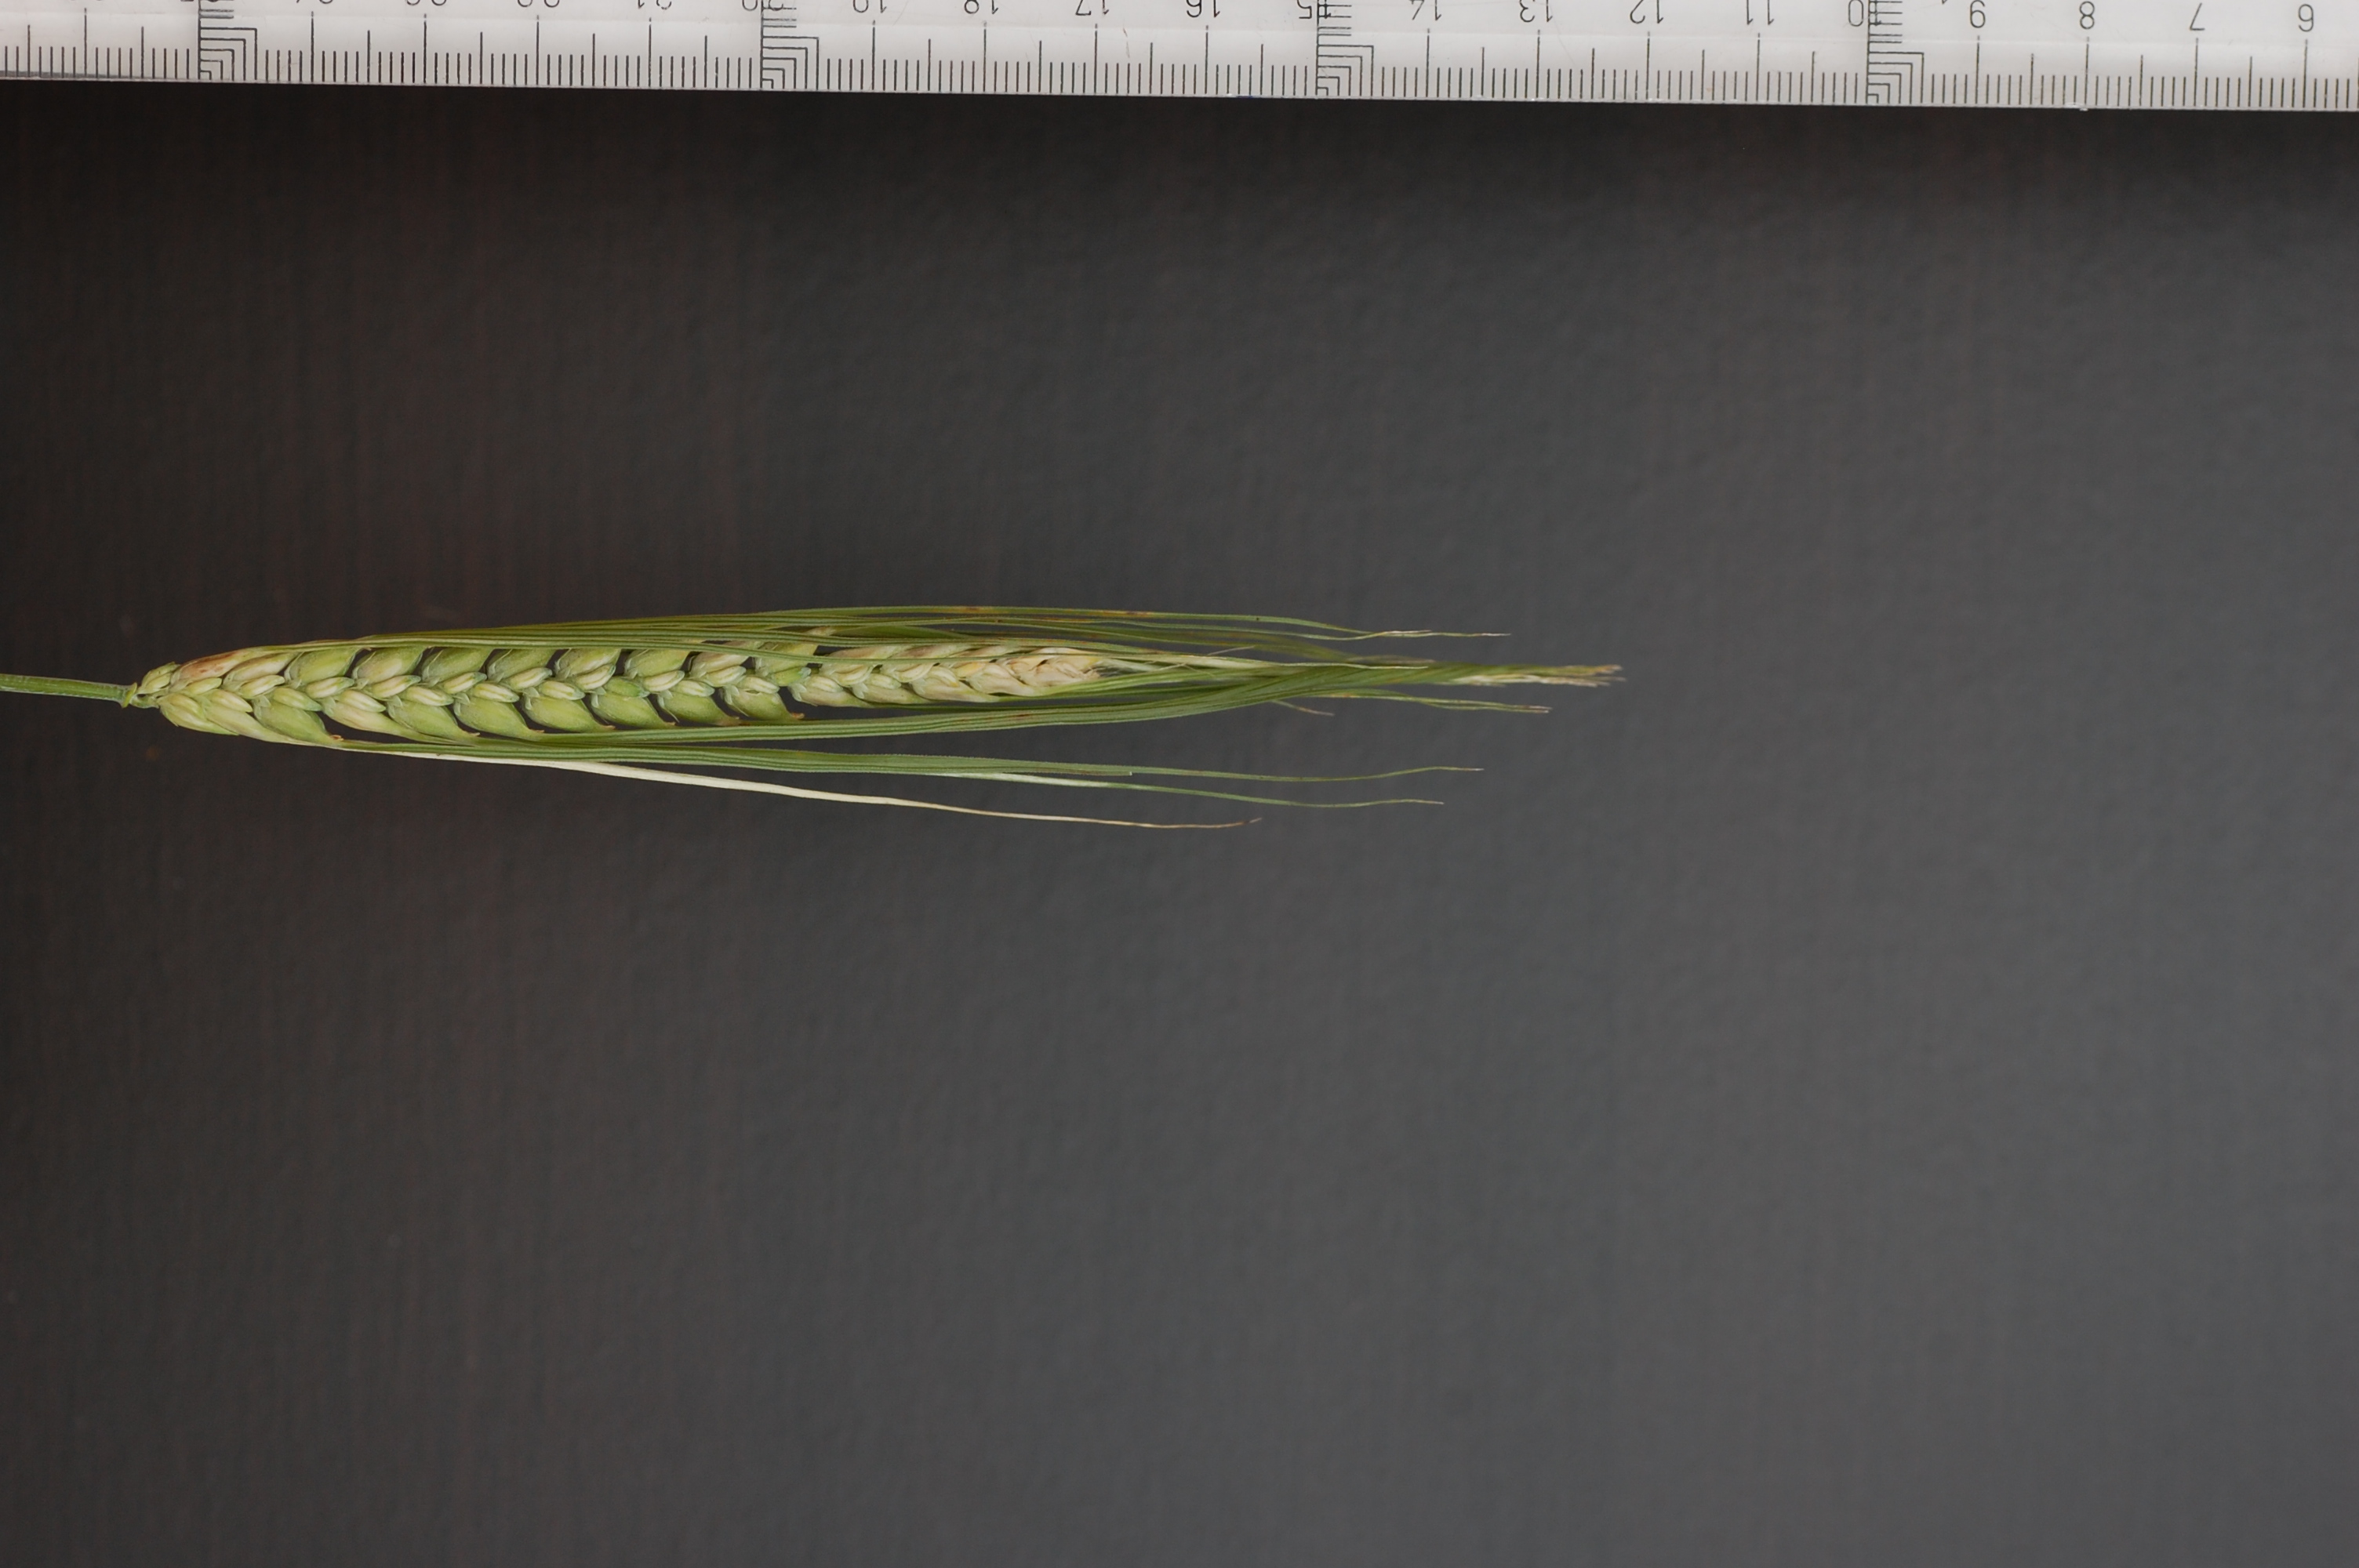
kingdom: Plantae
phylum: Tracheophyta
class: Liliopsida
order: Poales
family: Poaceae
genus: Hordeum
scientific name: Hordeum vulgare
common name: Common barley
